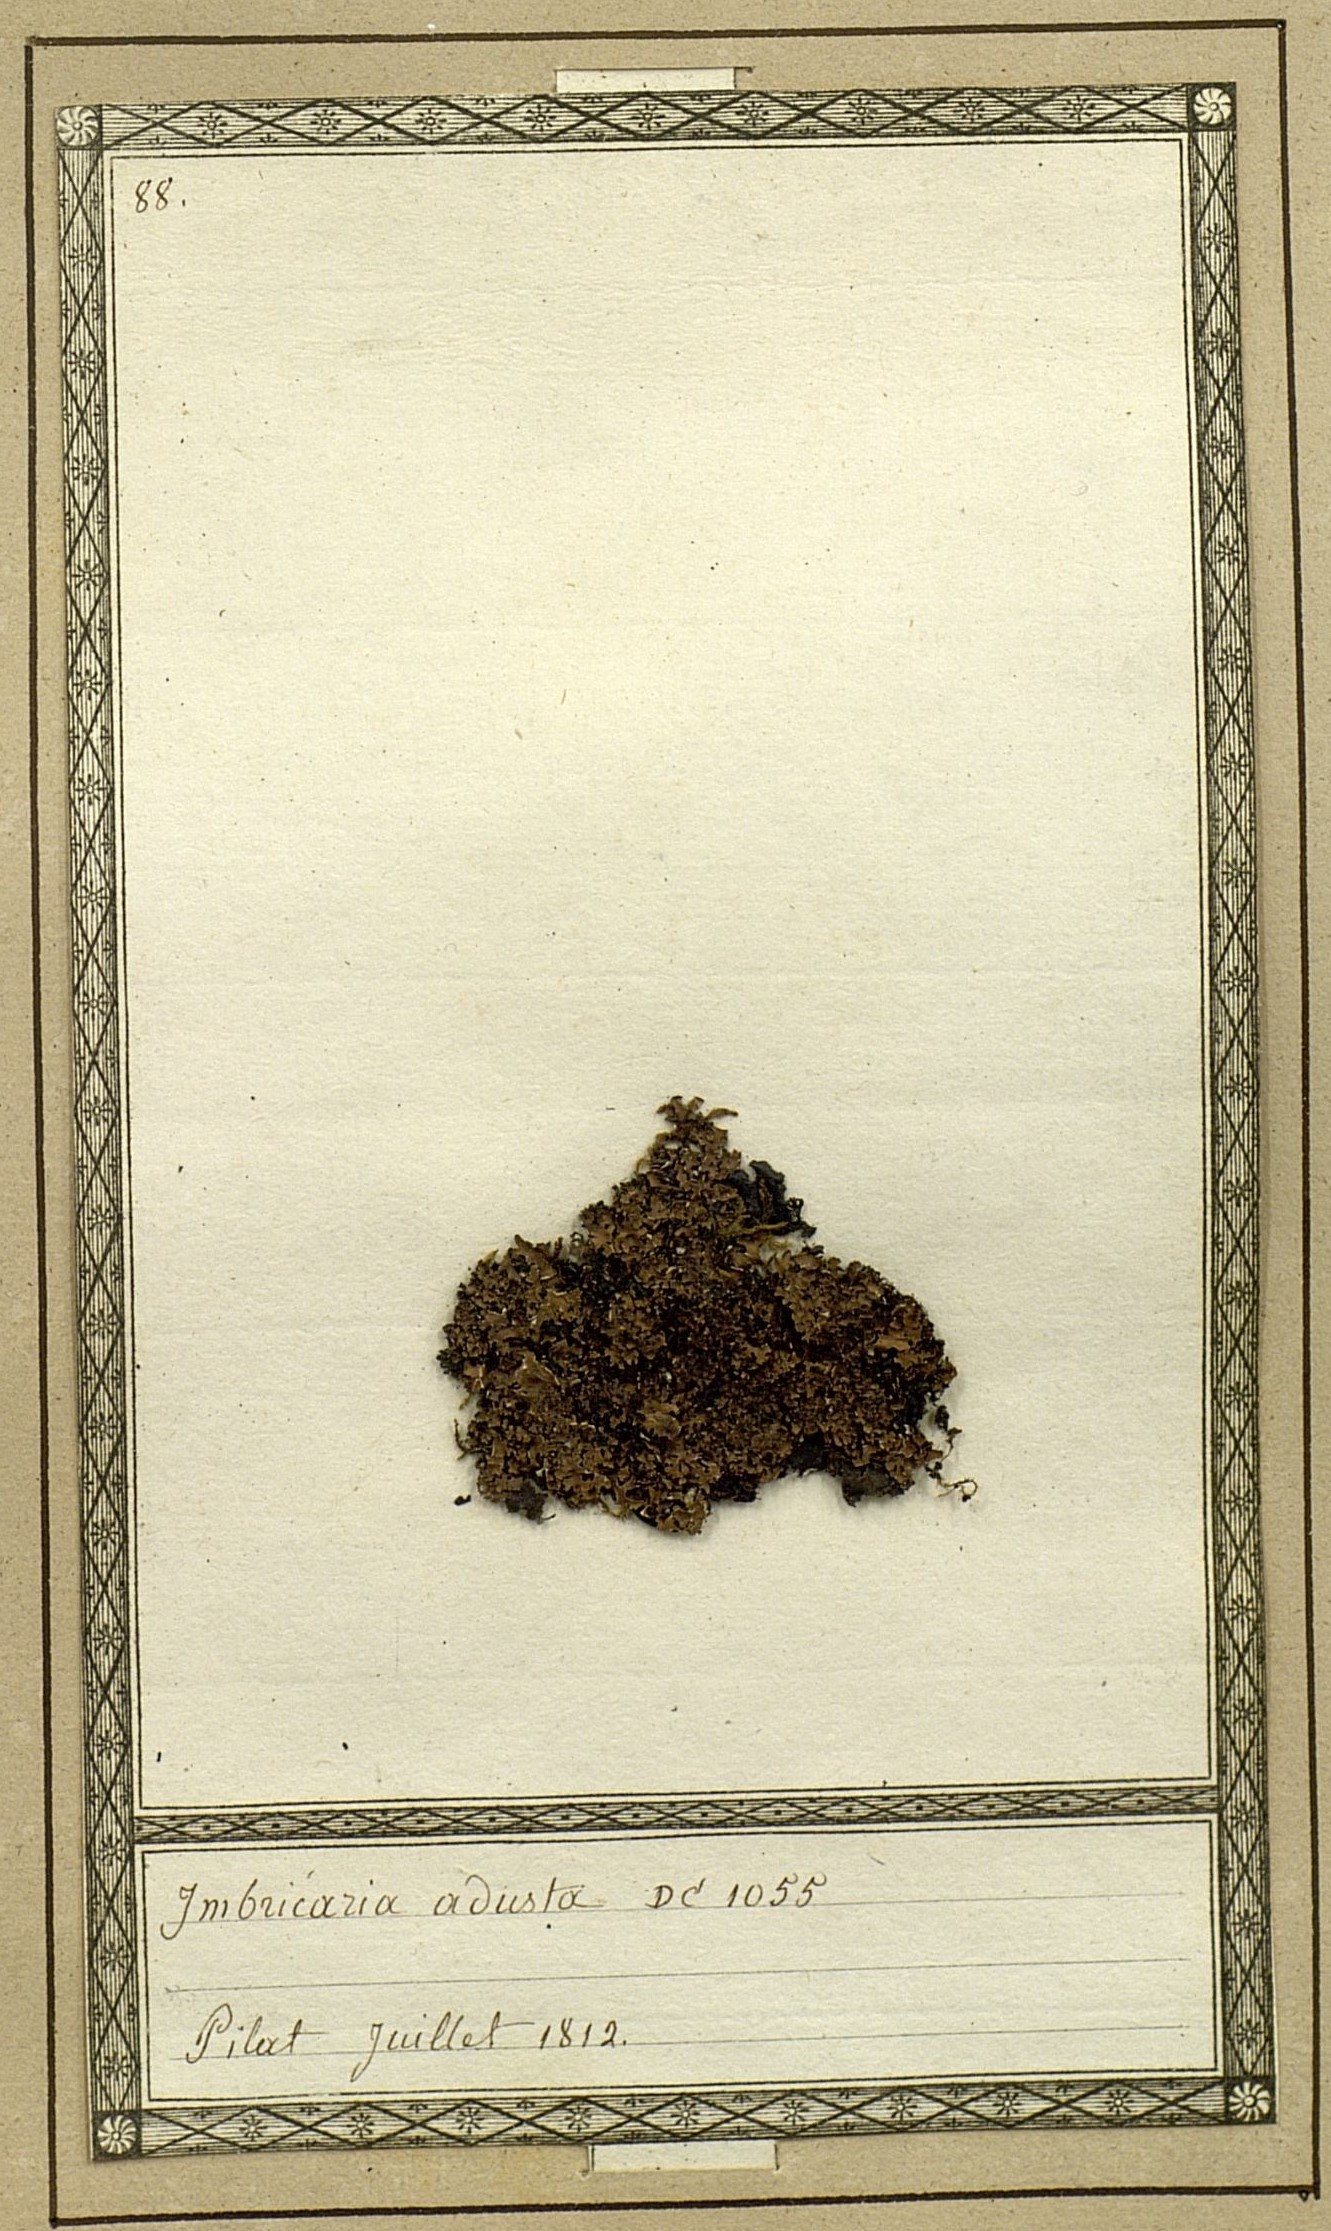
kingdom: Fungi
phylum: Ascomycota
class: Lecanoromycetes
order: Lecanorales
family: Parmeliaceae
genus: Parmelia
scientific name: Parmelia omphalodes
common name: Smoky crottle
